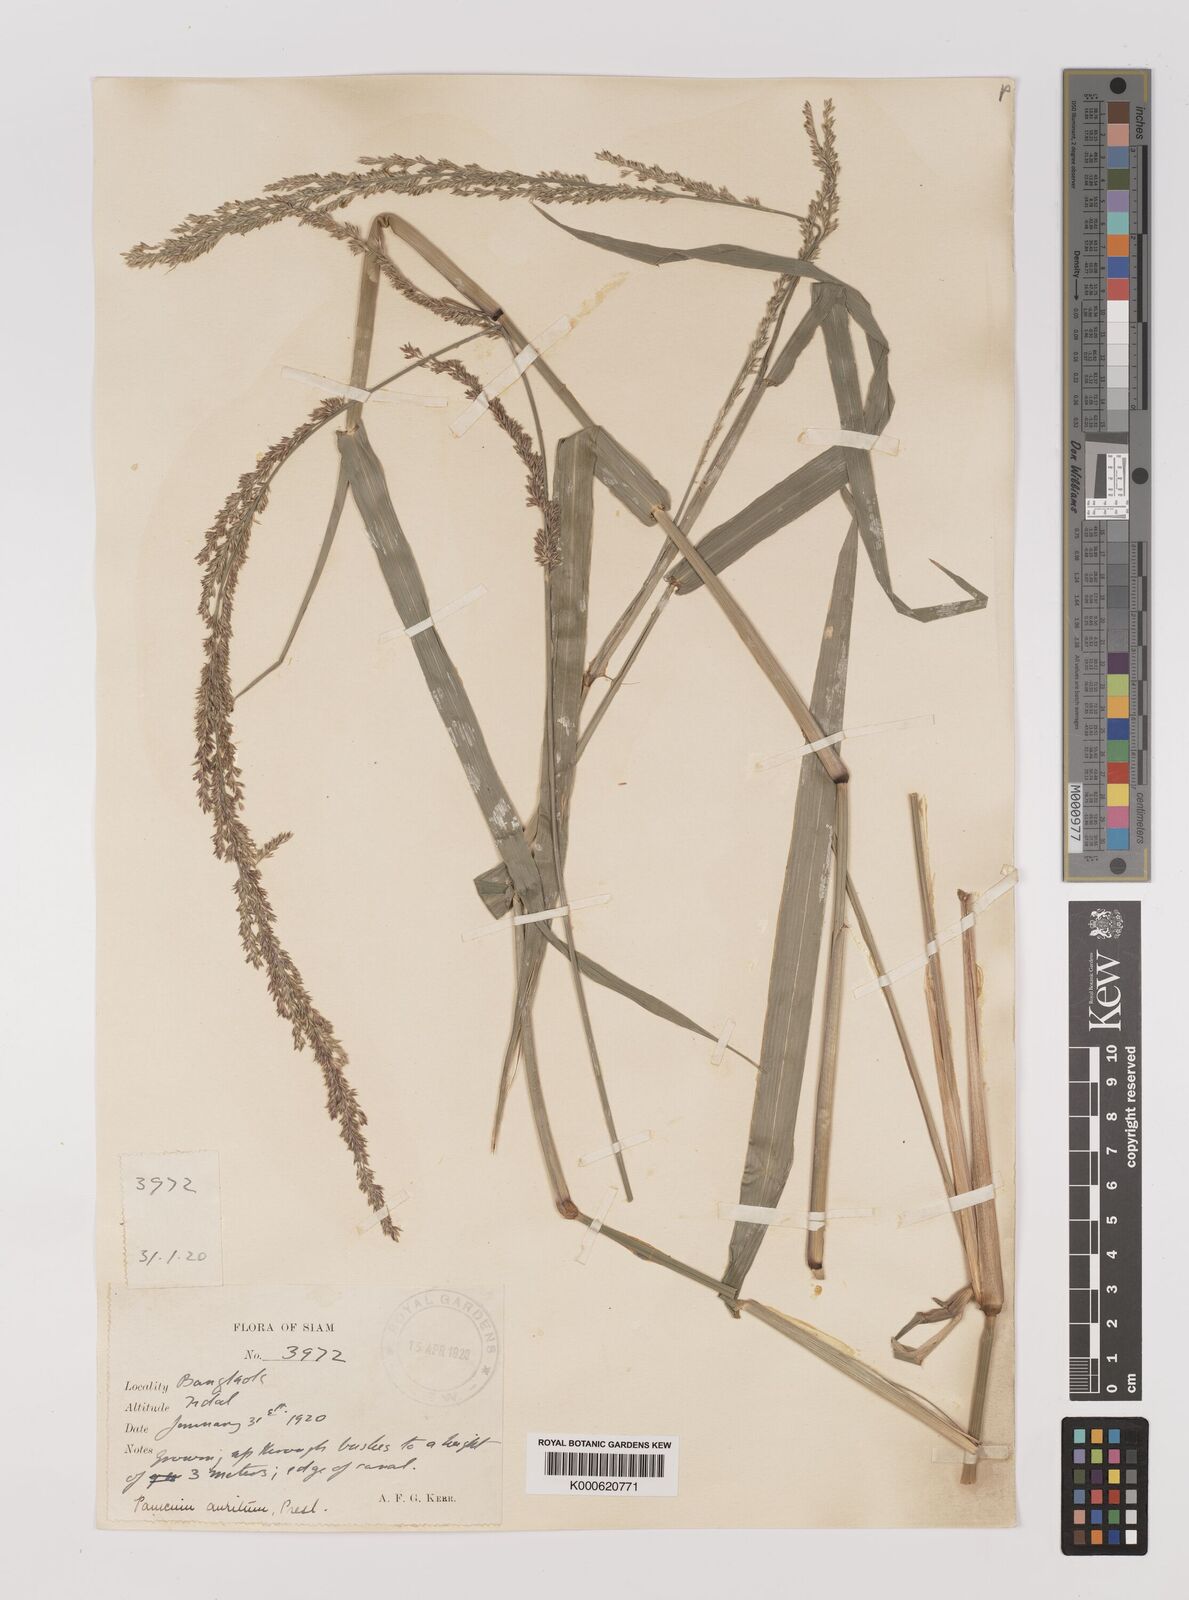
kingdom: Plantae
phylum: Tracheophyta
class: Liliopsida
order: Poales
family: Poaceae
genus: Hymenachne
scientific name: Hymenachne aurita
